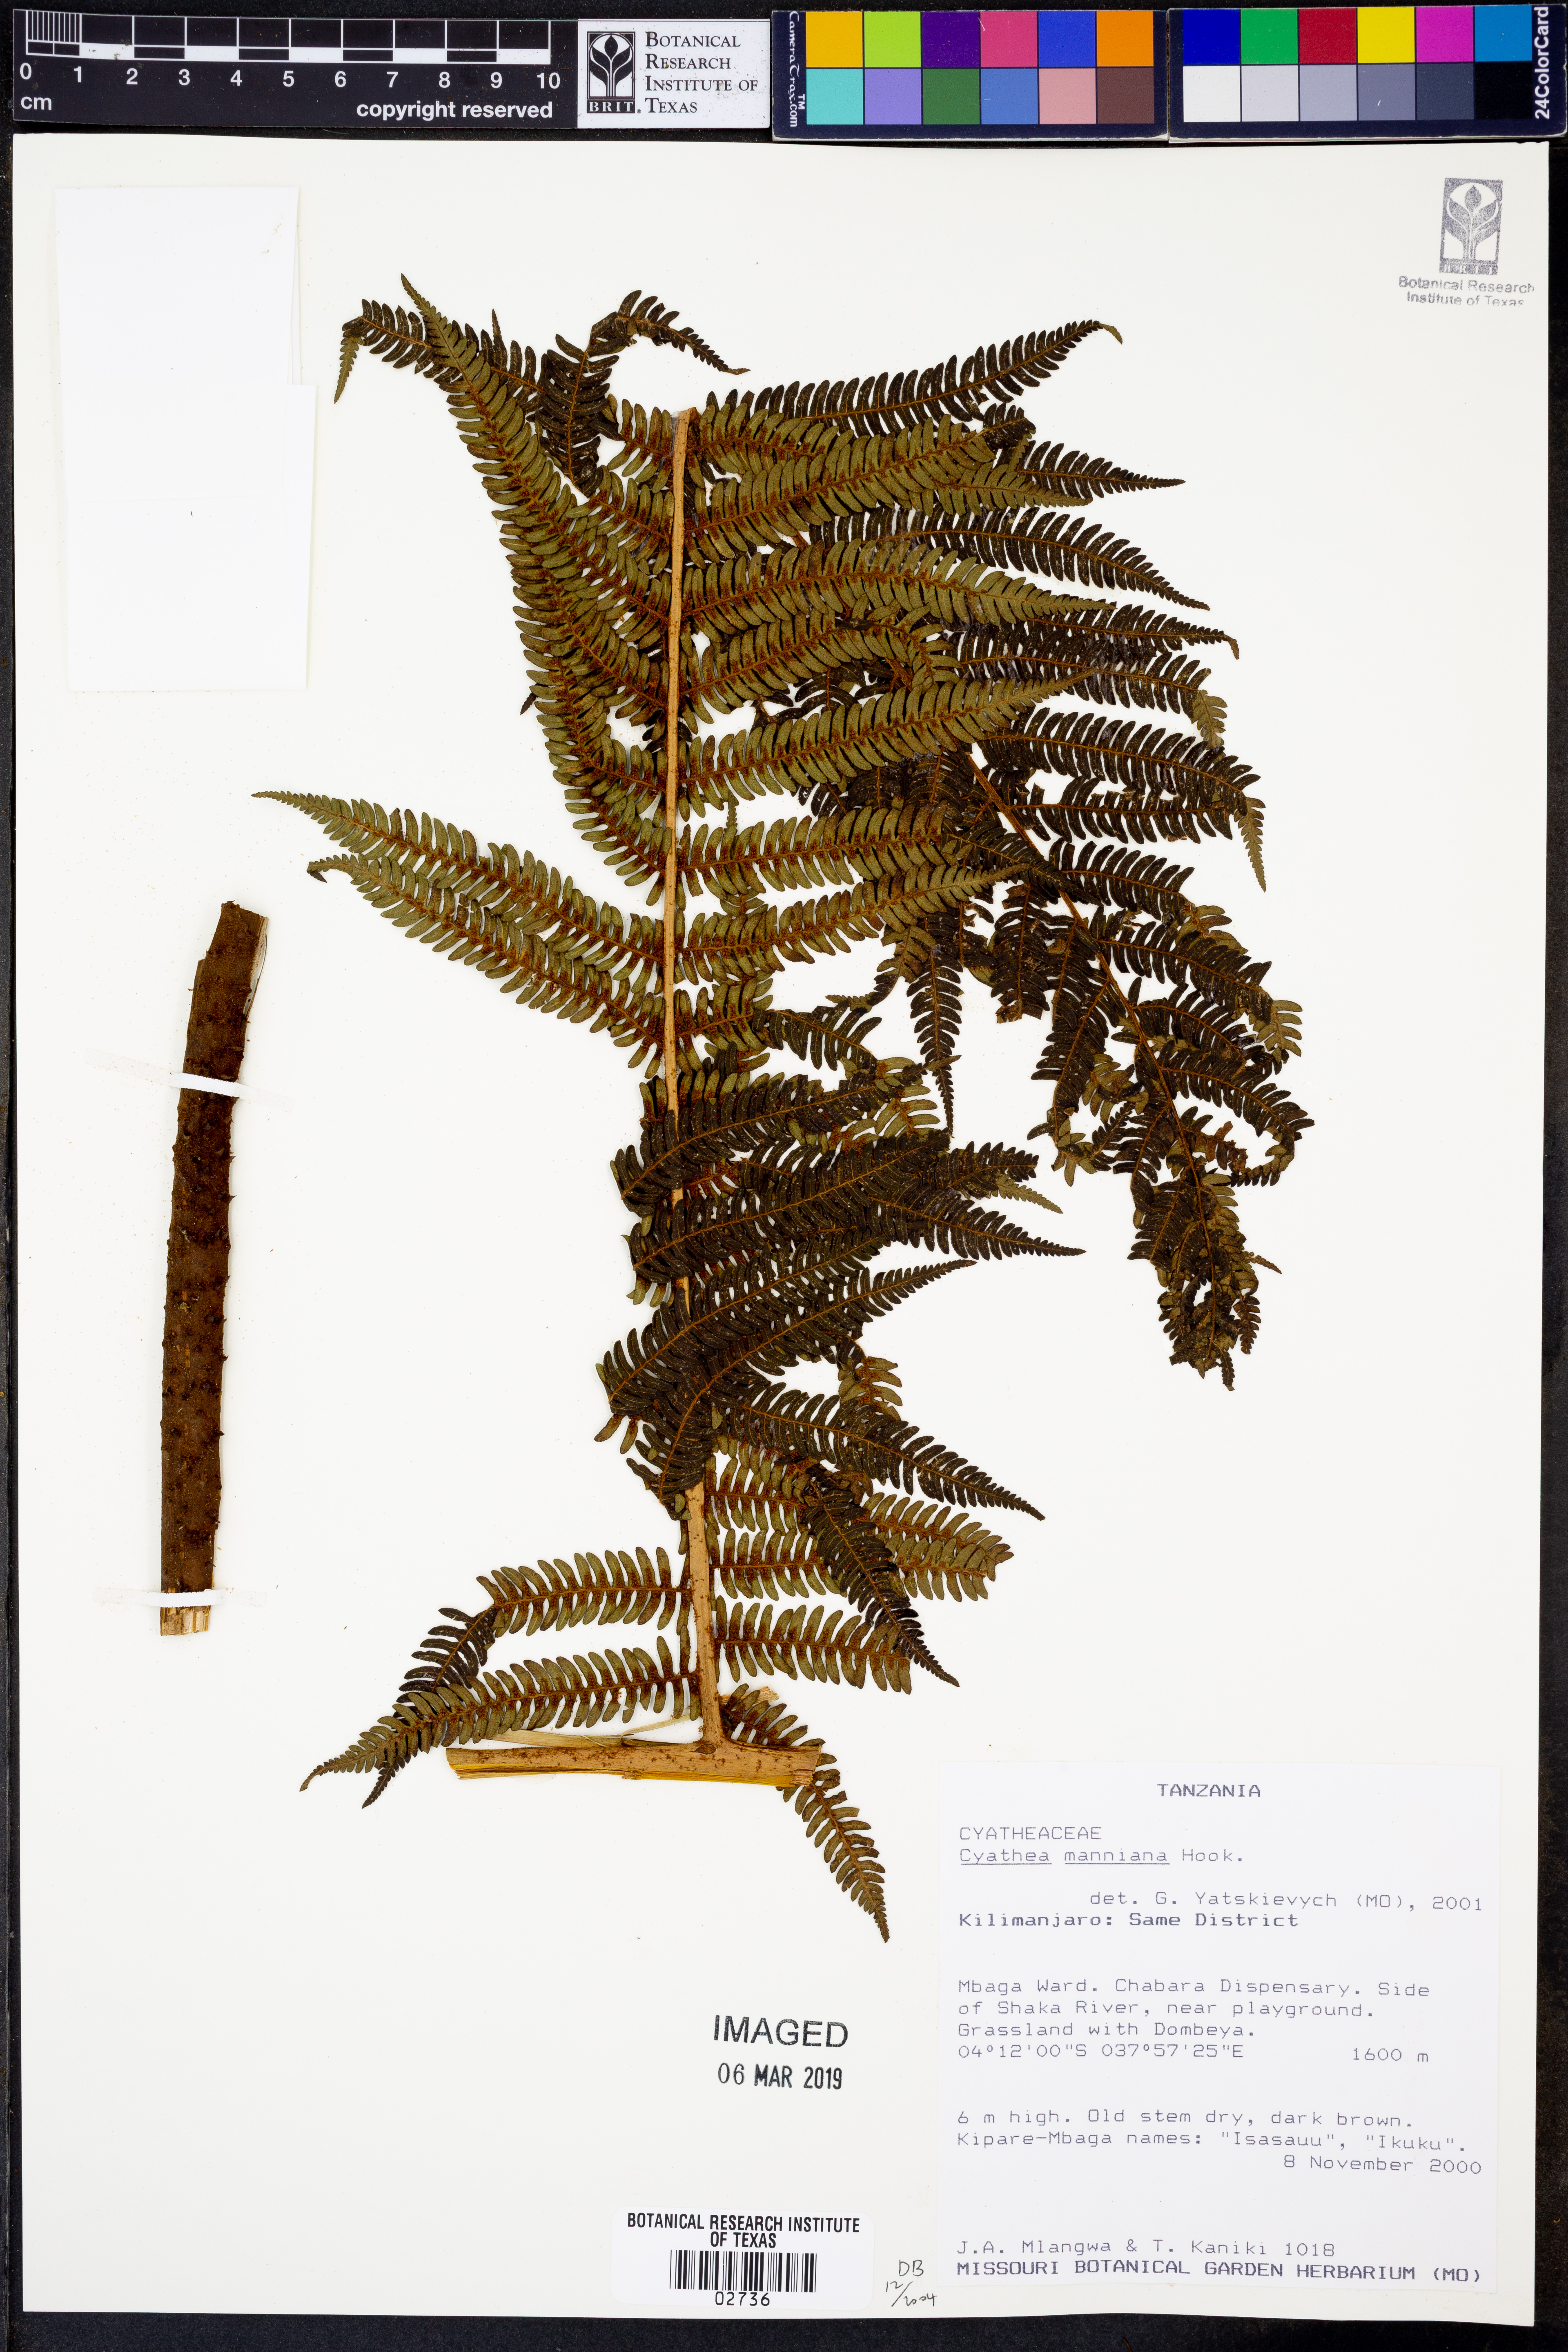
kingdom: Plantae
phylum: Tracheophyta
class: Polypodiopsida
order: Cyatheales
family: Cyatheaceae
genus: Alsophila
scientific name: Alsophila manniana
